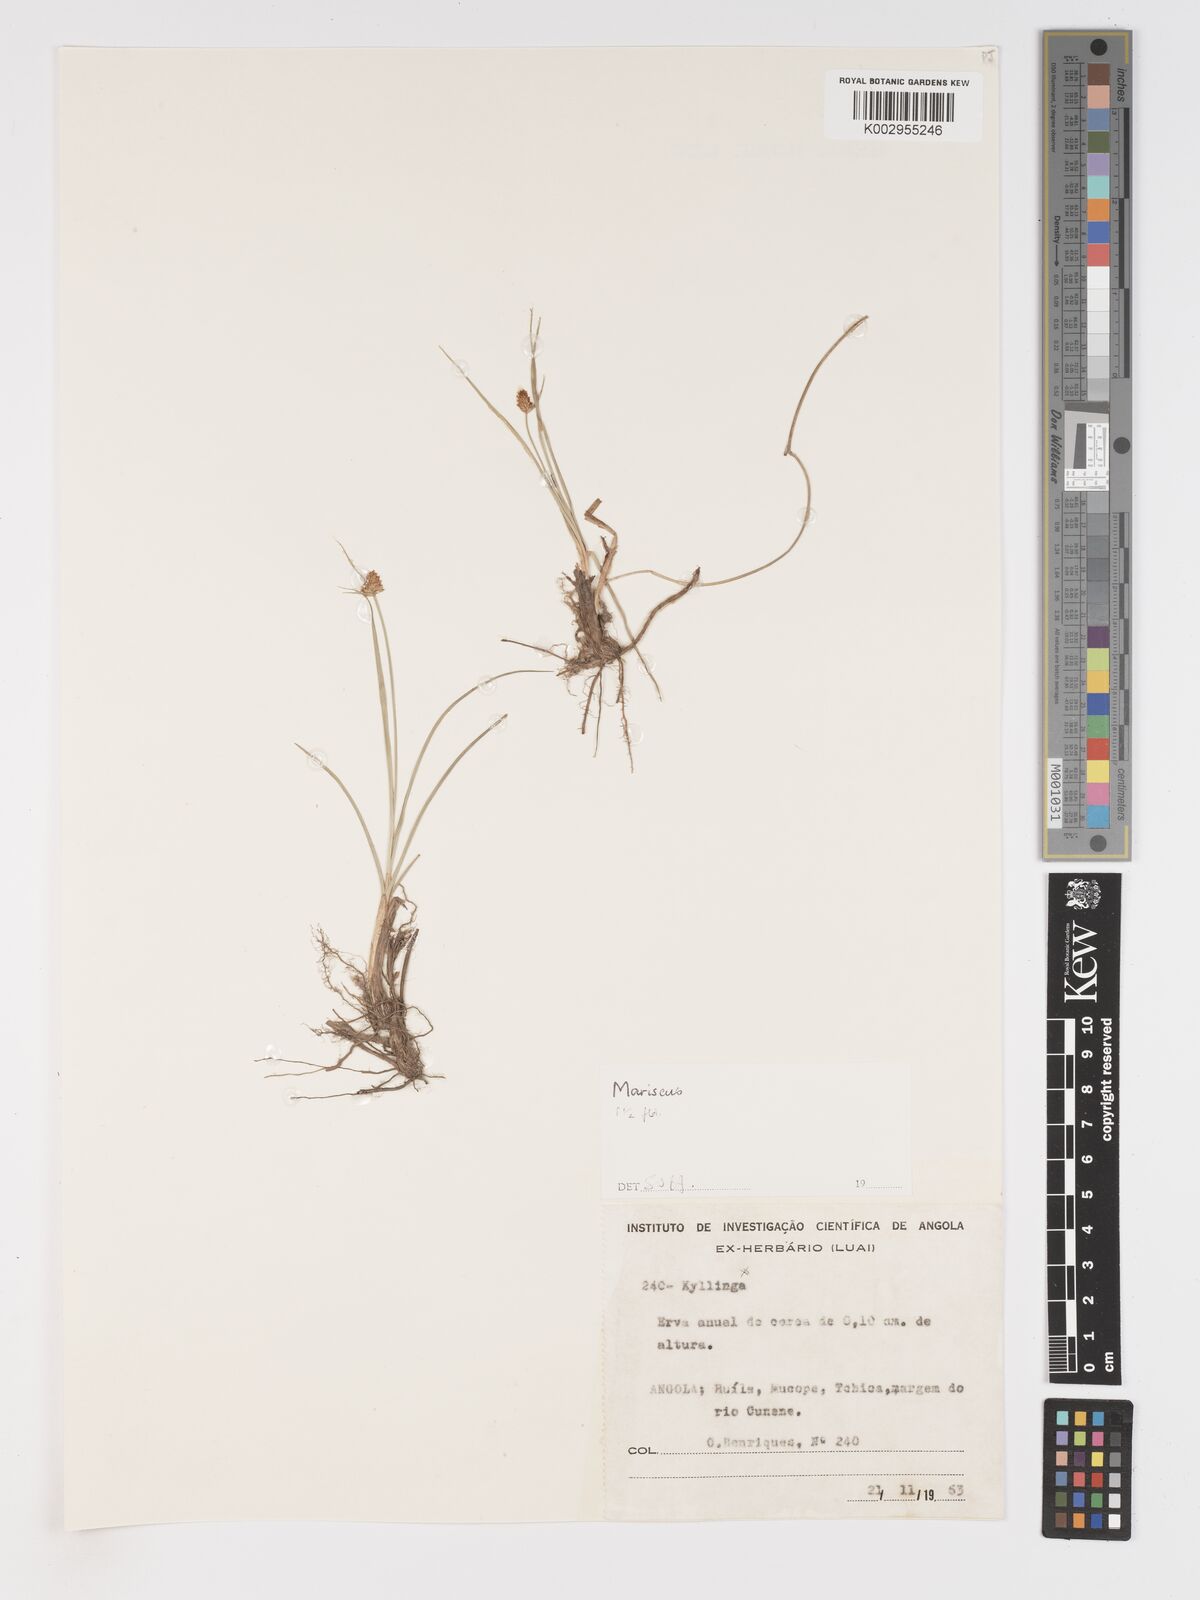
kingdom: Plantae
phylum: Tracheophyta
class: Liliopsida
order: Poales
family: Cyperaceae
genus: Cyperus
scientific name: Cyperus
